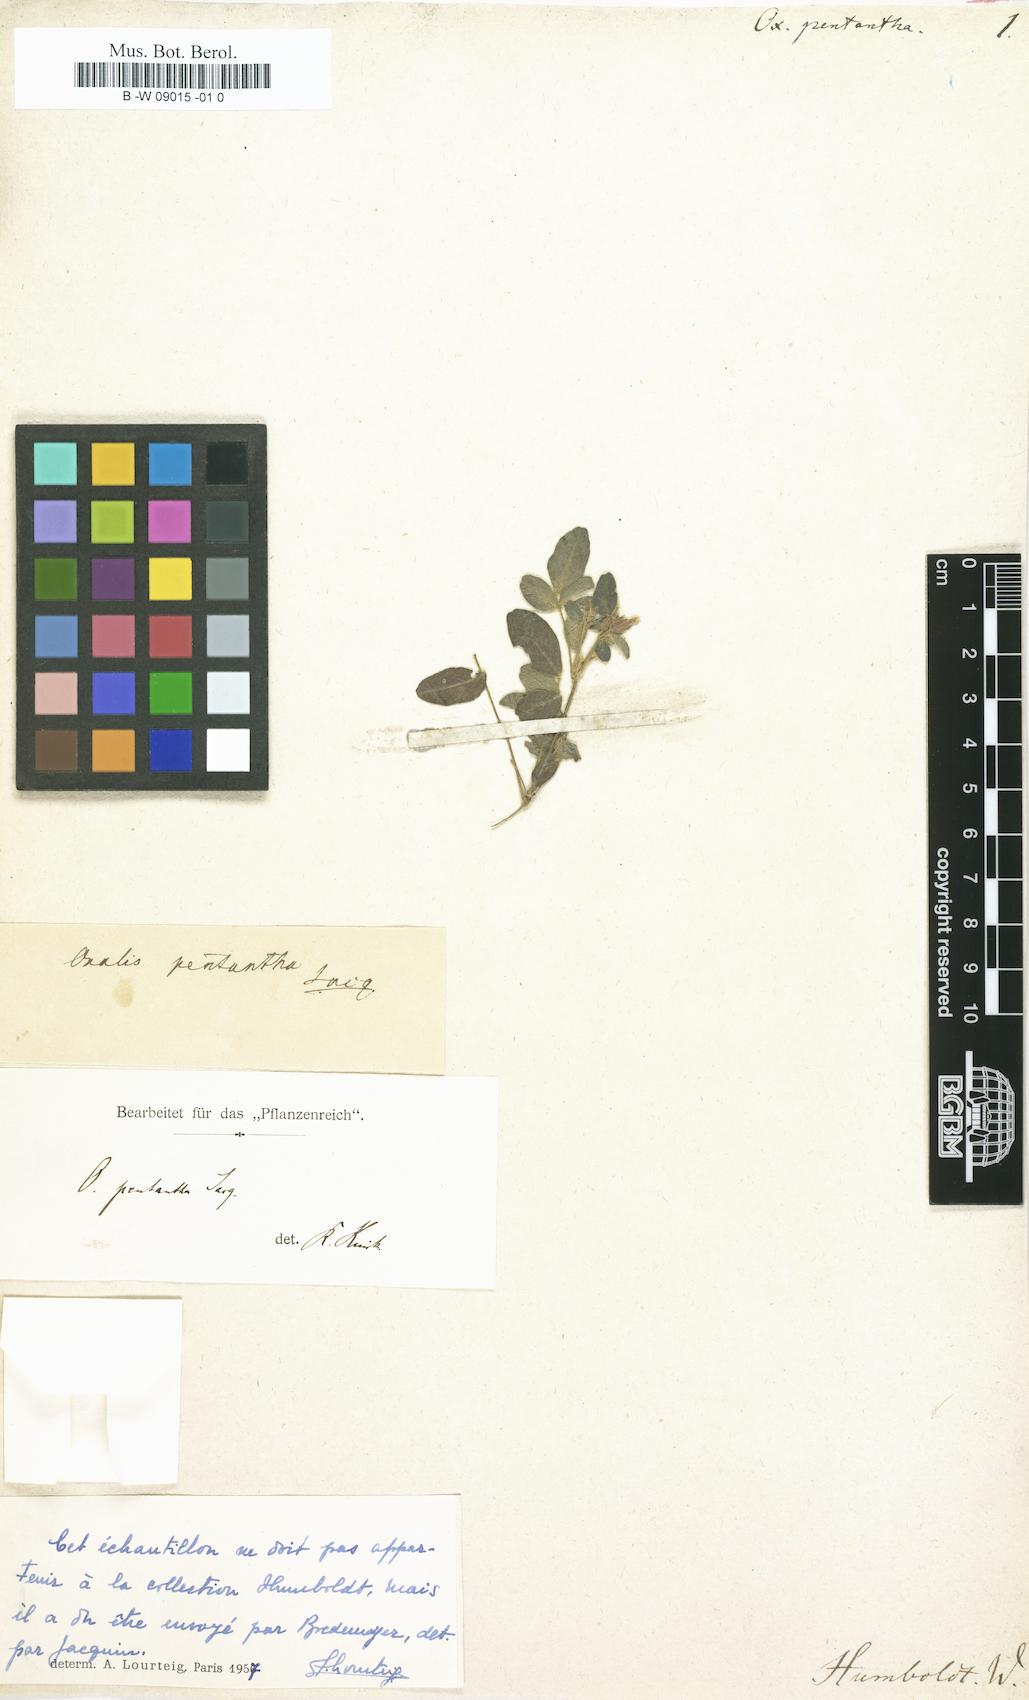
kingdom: Plantae
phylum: Tracheophyta
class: Magnoliopsida
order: Oxalidales
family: Oxalidaceae
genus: Oxalis
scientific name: Oxalis frutescens
